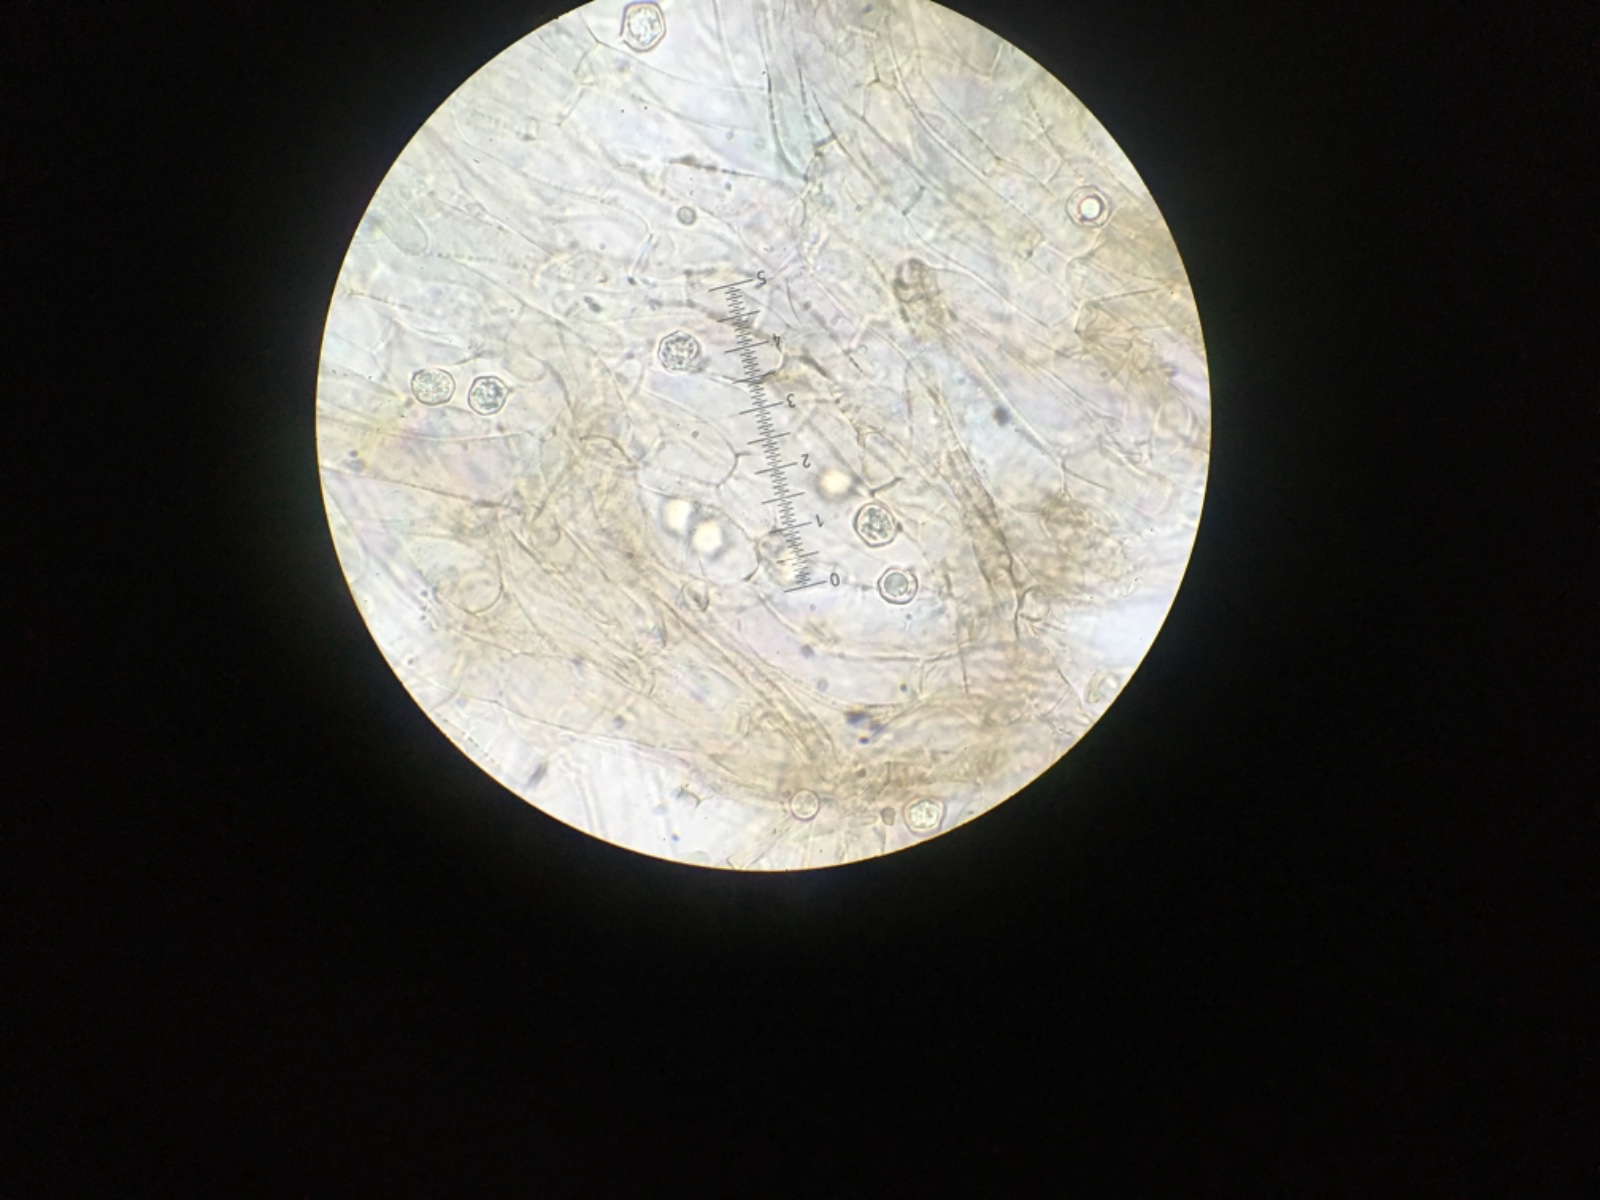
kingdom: Fungi
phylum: Basidiomycota
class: Agaricomycetes
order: Agaricales
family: Entolomataceae
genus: Entoloma
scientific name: Entoloma sericeum
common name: silkeglinsende rødblad
